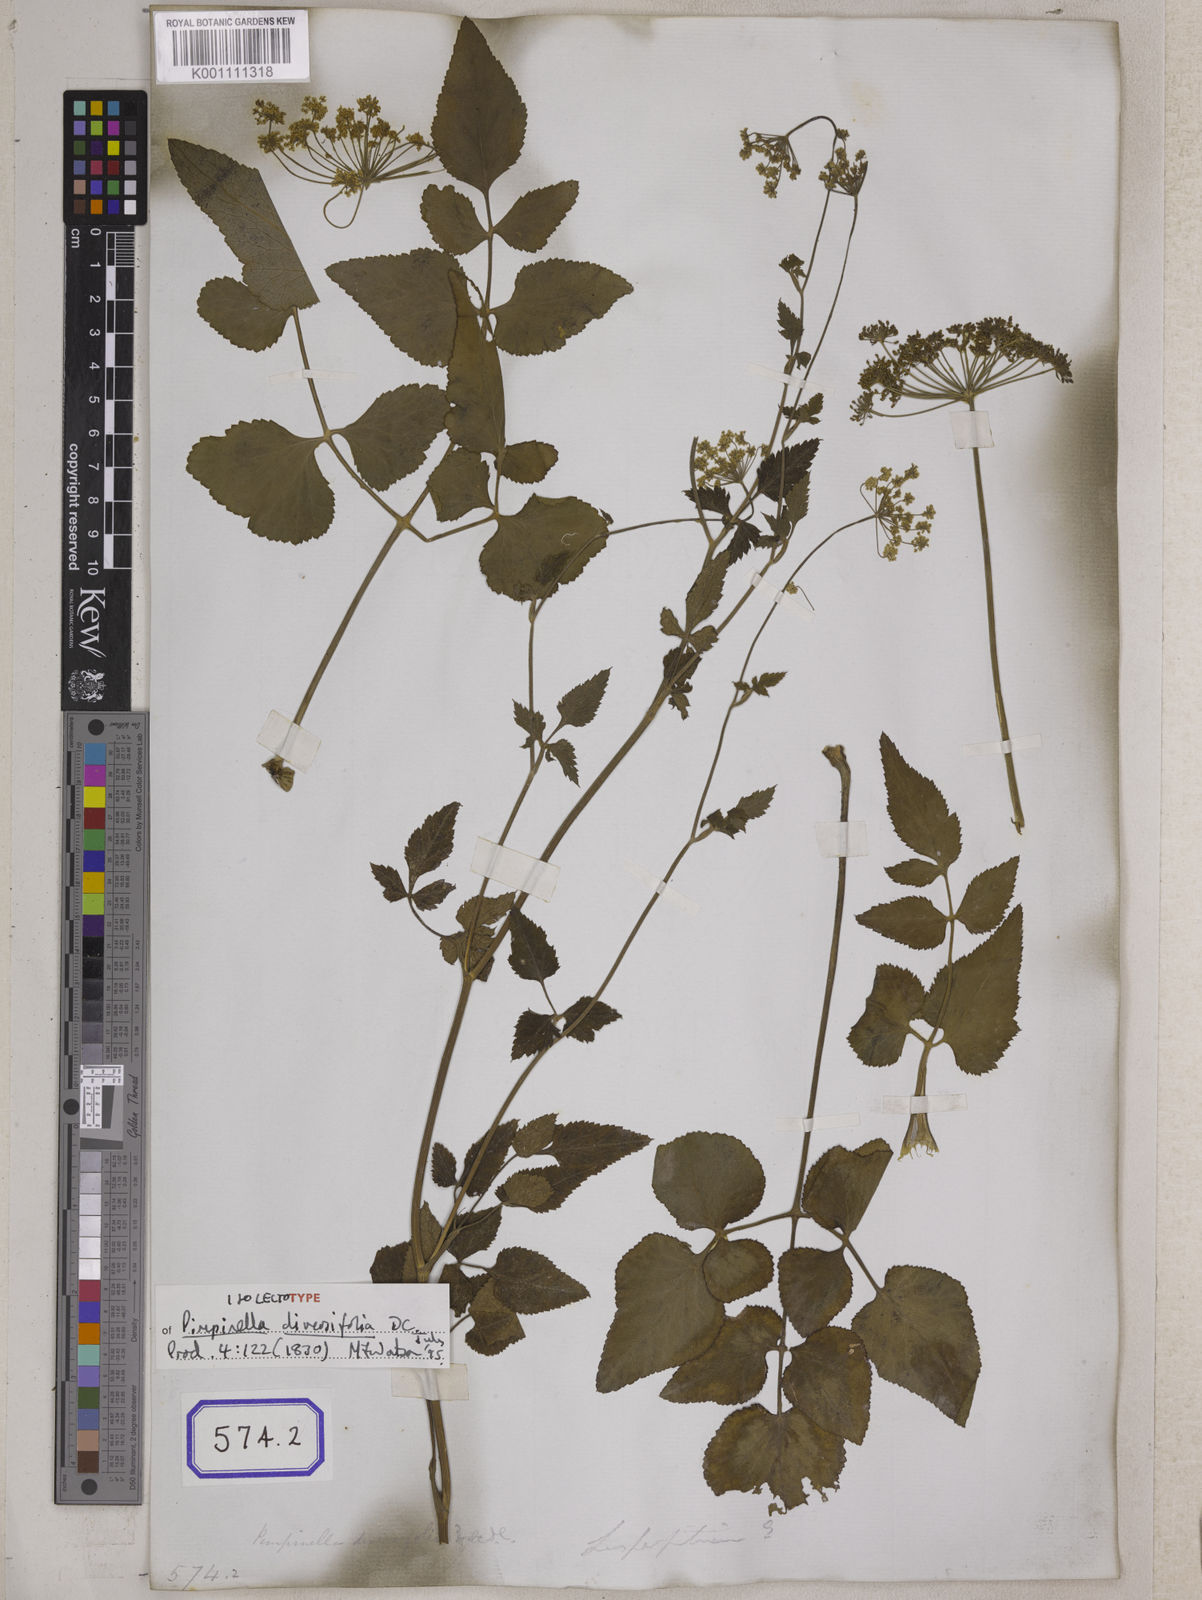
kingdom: Plantae
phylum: Tracheophyta
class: Magnoliopsida
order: Apiales
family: Apiaceae
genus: Tetrataenium
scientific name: Tetrataenium wallichii
